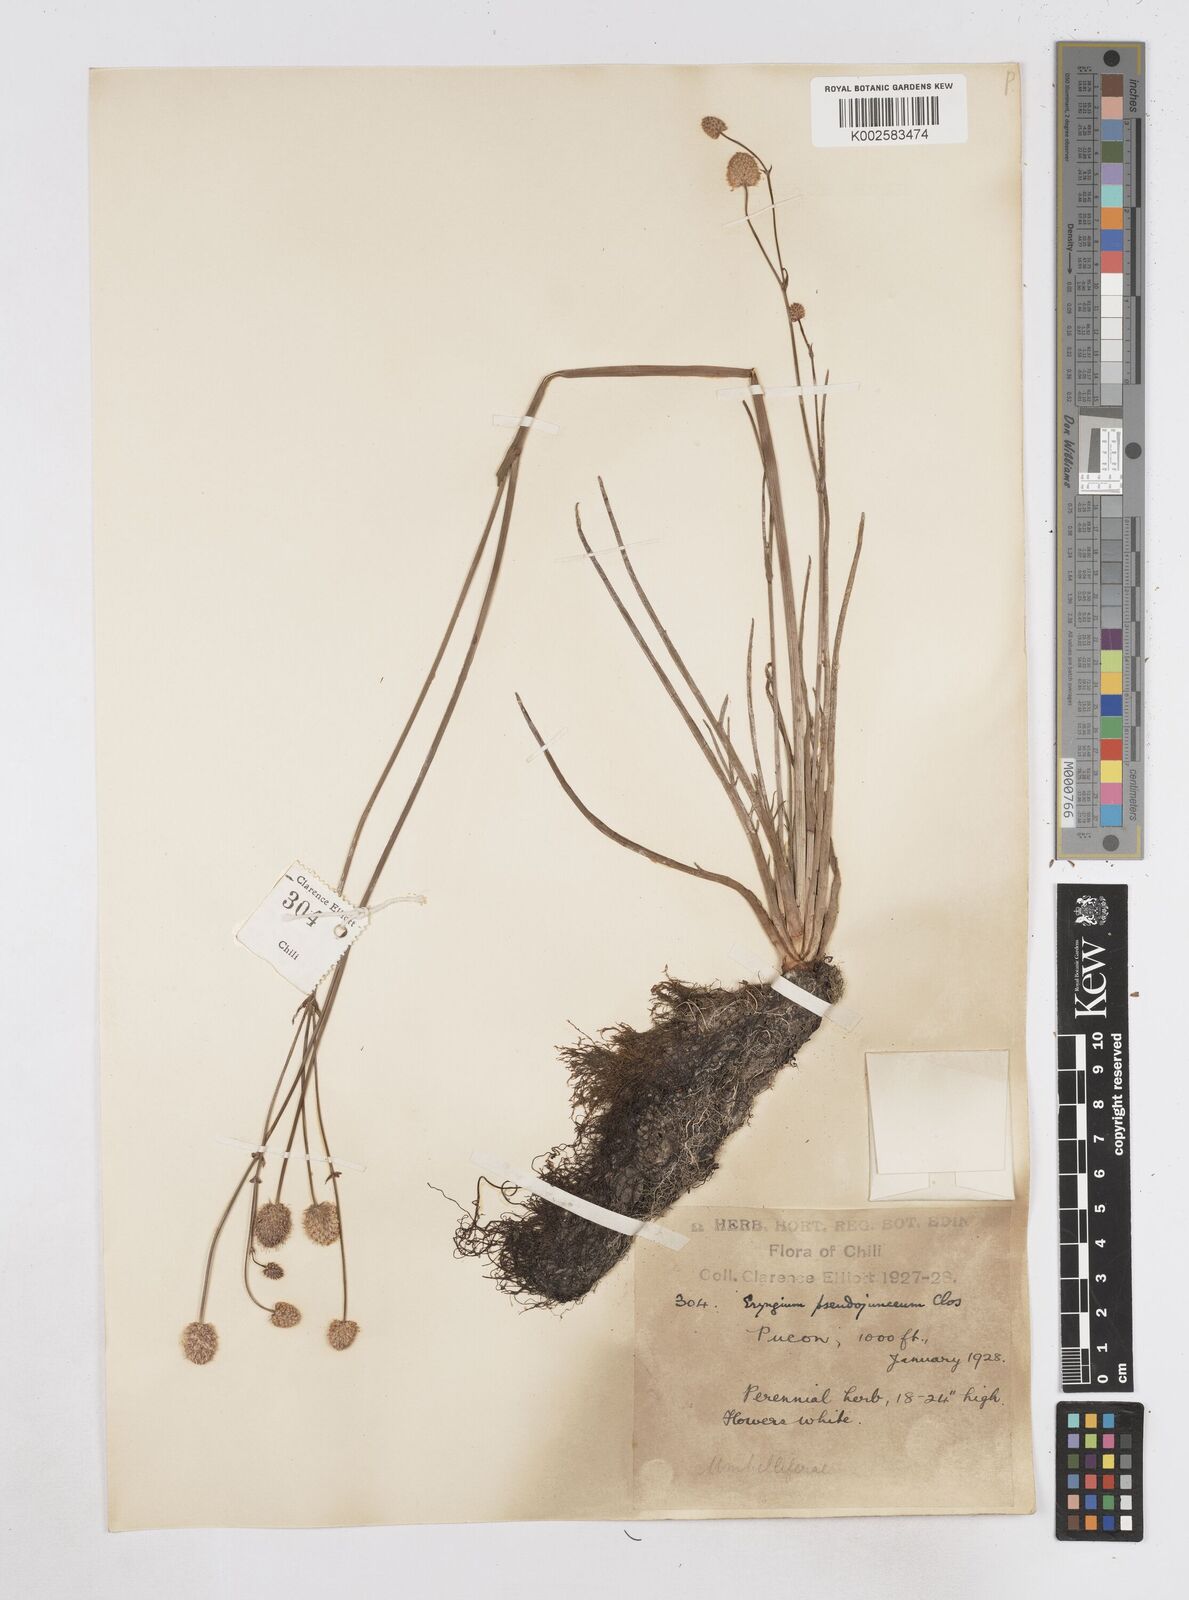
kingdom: Plantae
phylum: Tracheophyta
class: Magnoliopsida
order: Apiales
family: Apiaceae
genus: Eryngium
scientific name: Eryngium pseudojunceum
